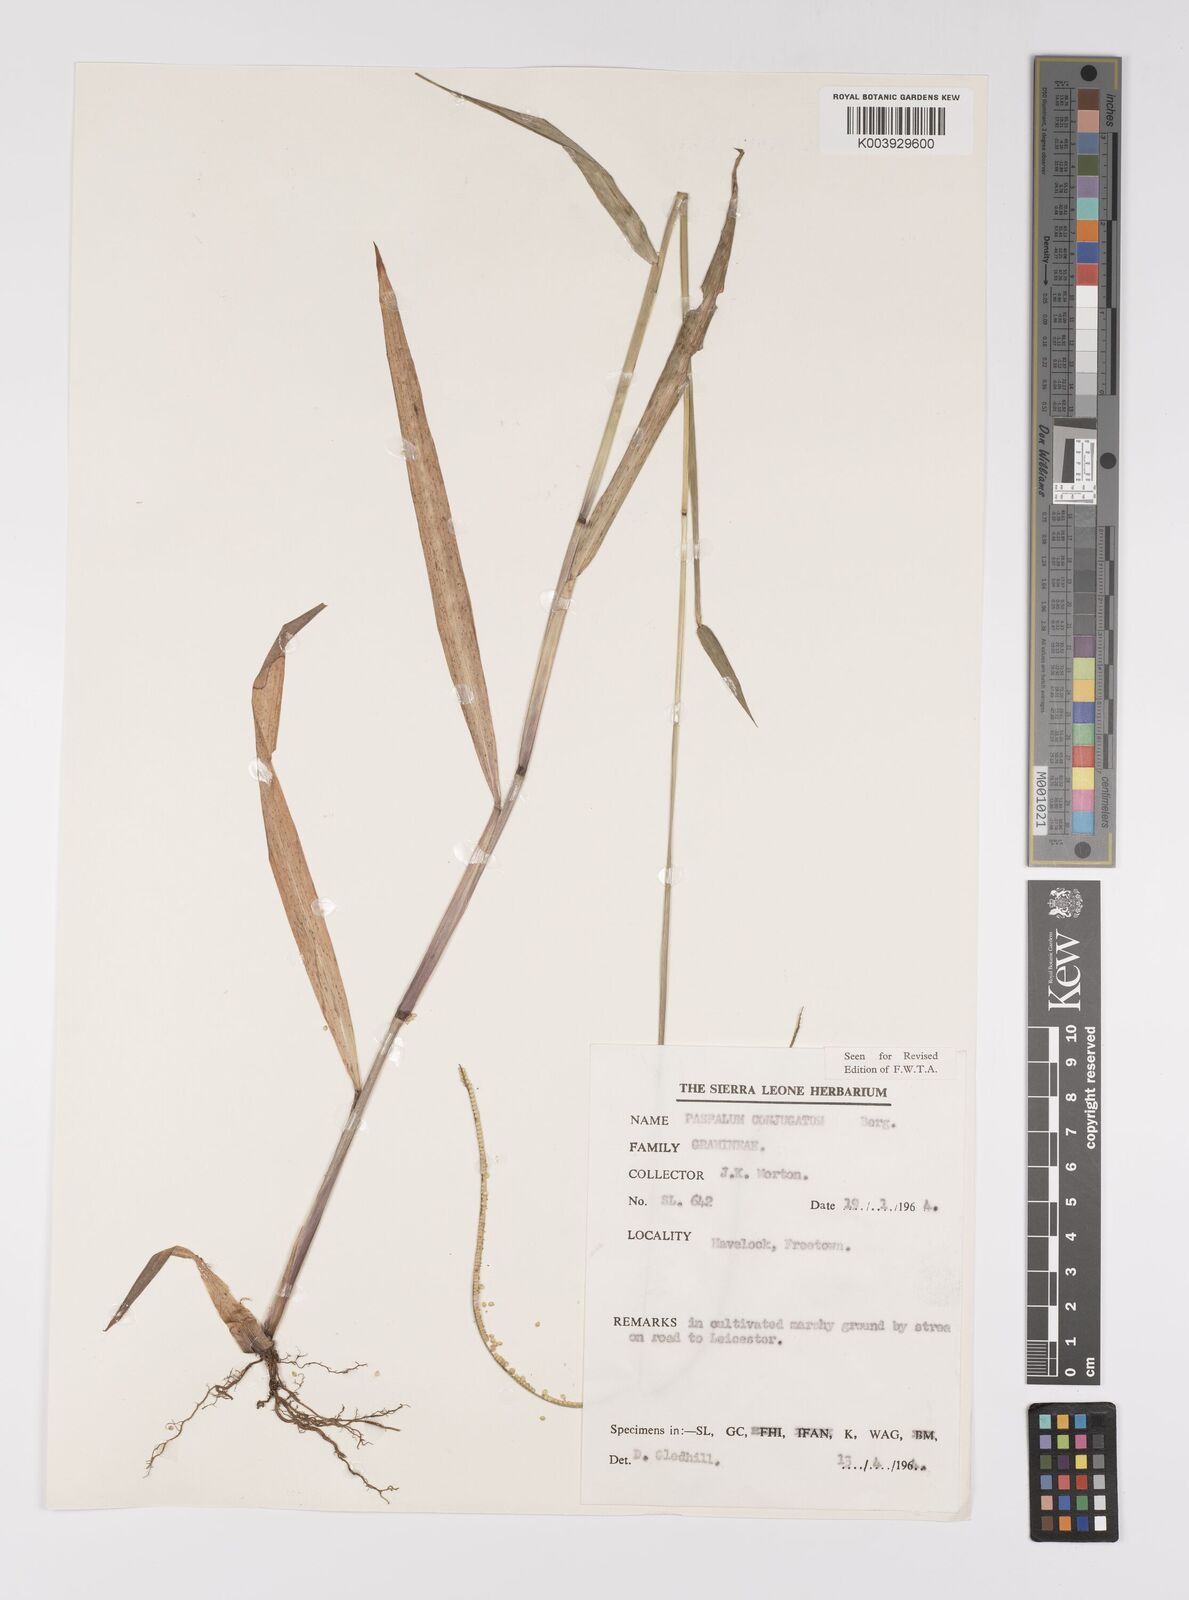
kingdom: Plantae
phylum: Tracheophyta
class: Liliopsida
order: Poales
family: Poaceae
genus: Paspalum
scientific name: Paspalum conjugatum
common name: Hilograss
